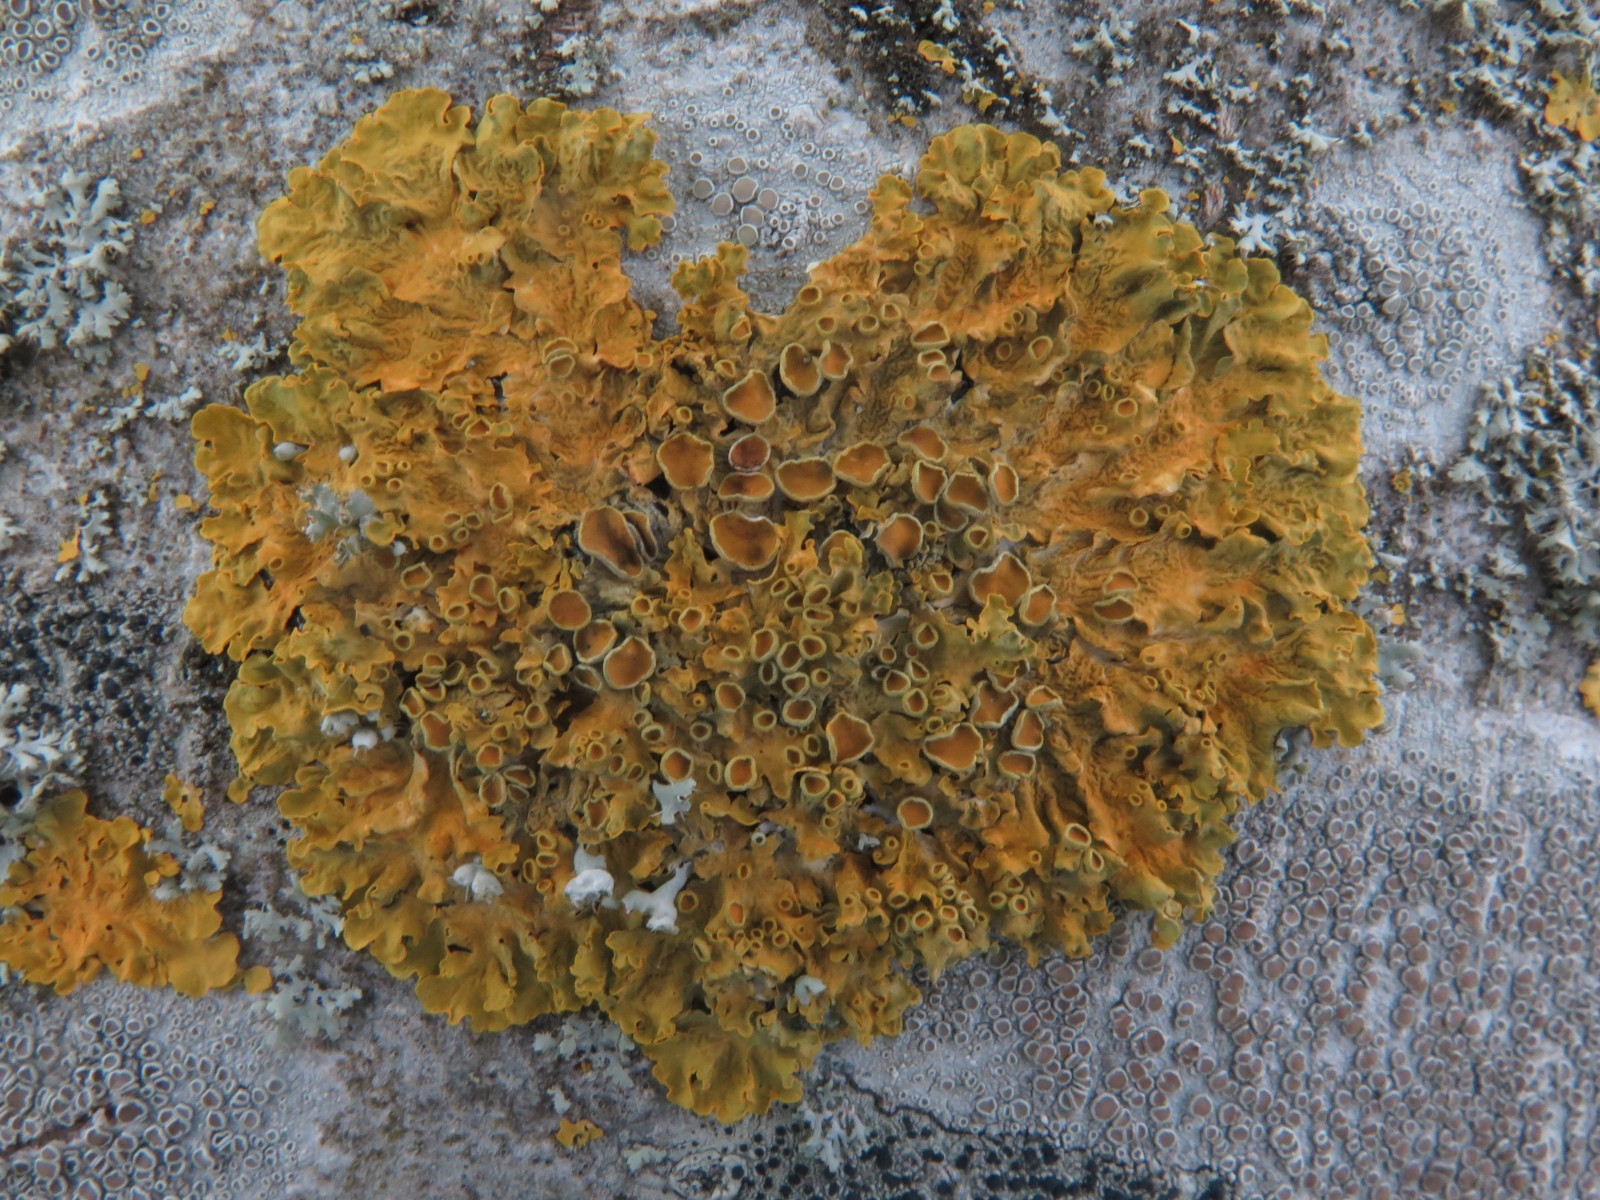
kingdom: Fungi
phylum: Ascomycota
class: Lecanoromycetes
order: Teloschistales
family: Teloschistaceae
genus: Xanthoria
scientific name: Xanthoria parietina
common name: almindelig væggelav
